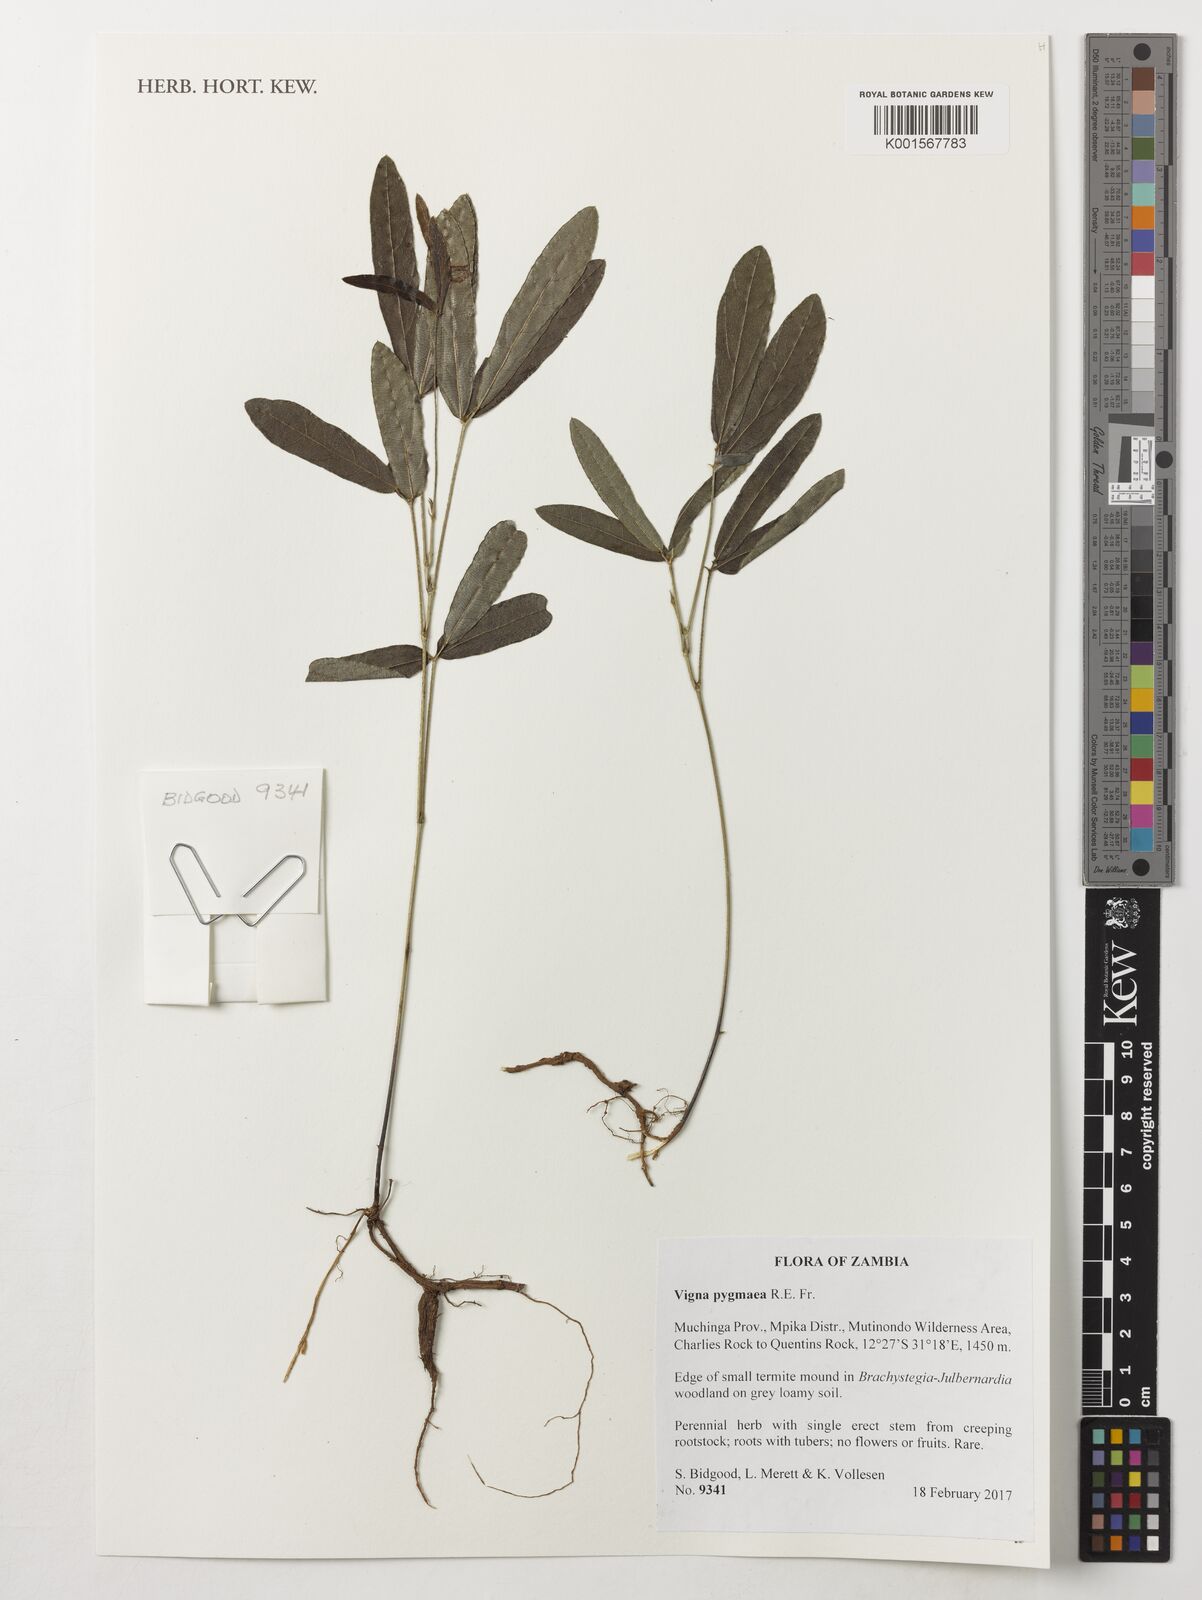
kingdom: Plantae
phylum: Tracheophyta
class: Magnoliopsida
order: Fabales
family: Fabaceae
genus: Vigna
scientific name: Vigna pygmaea
